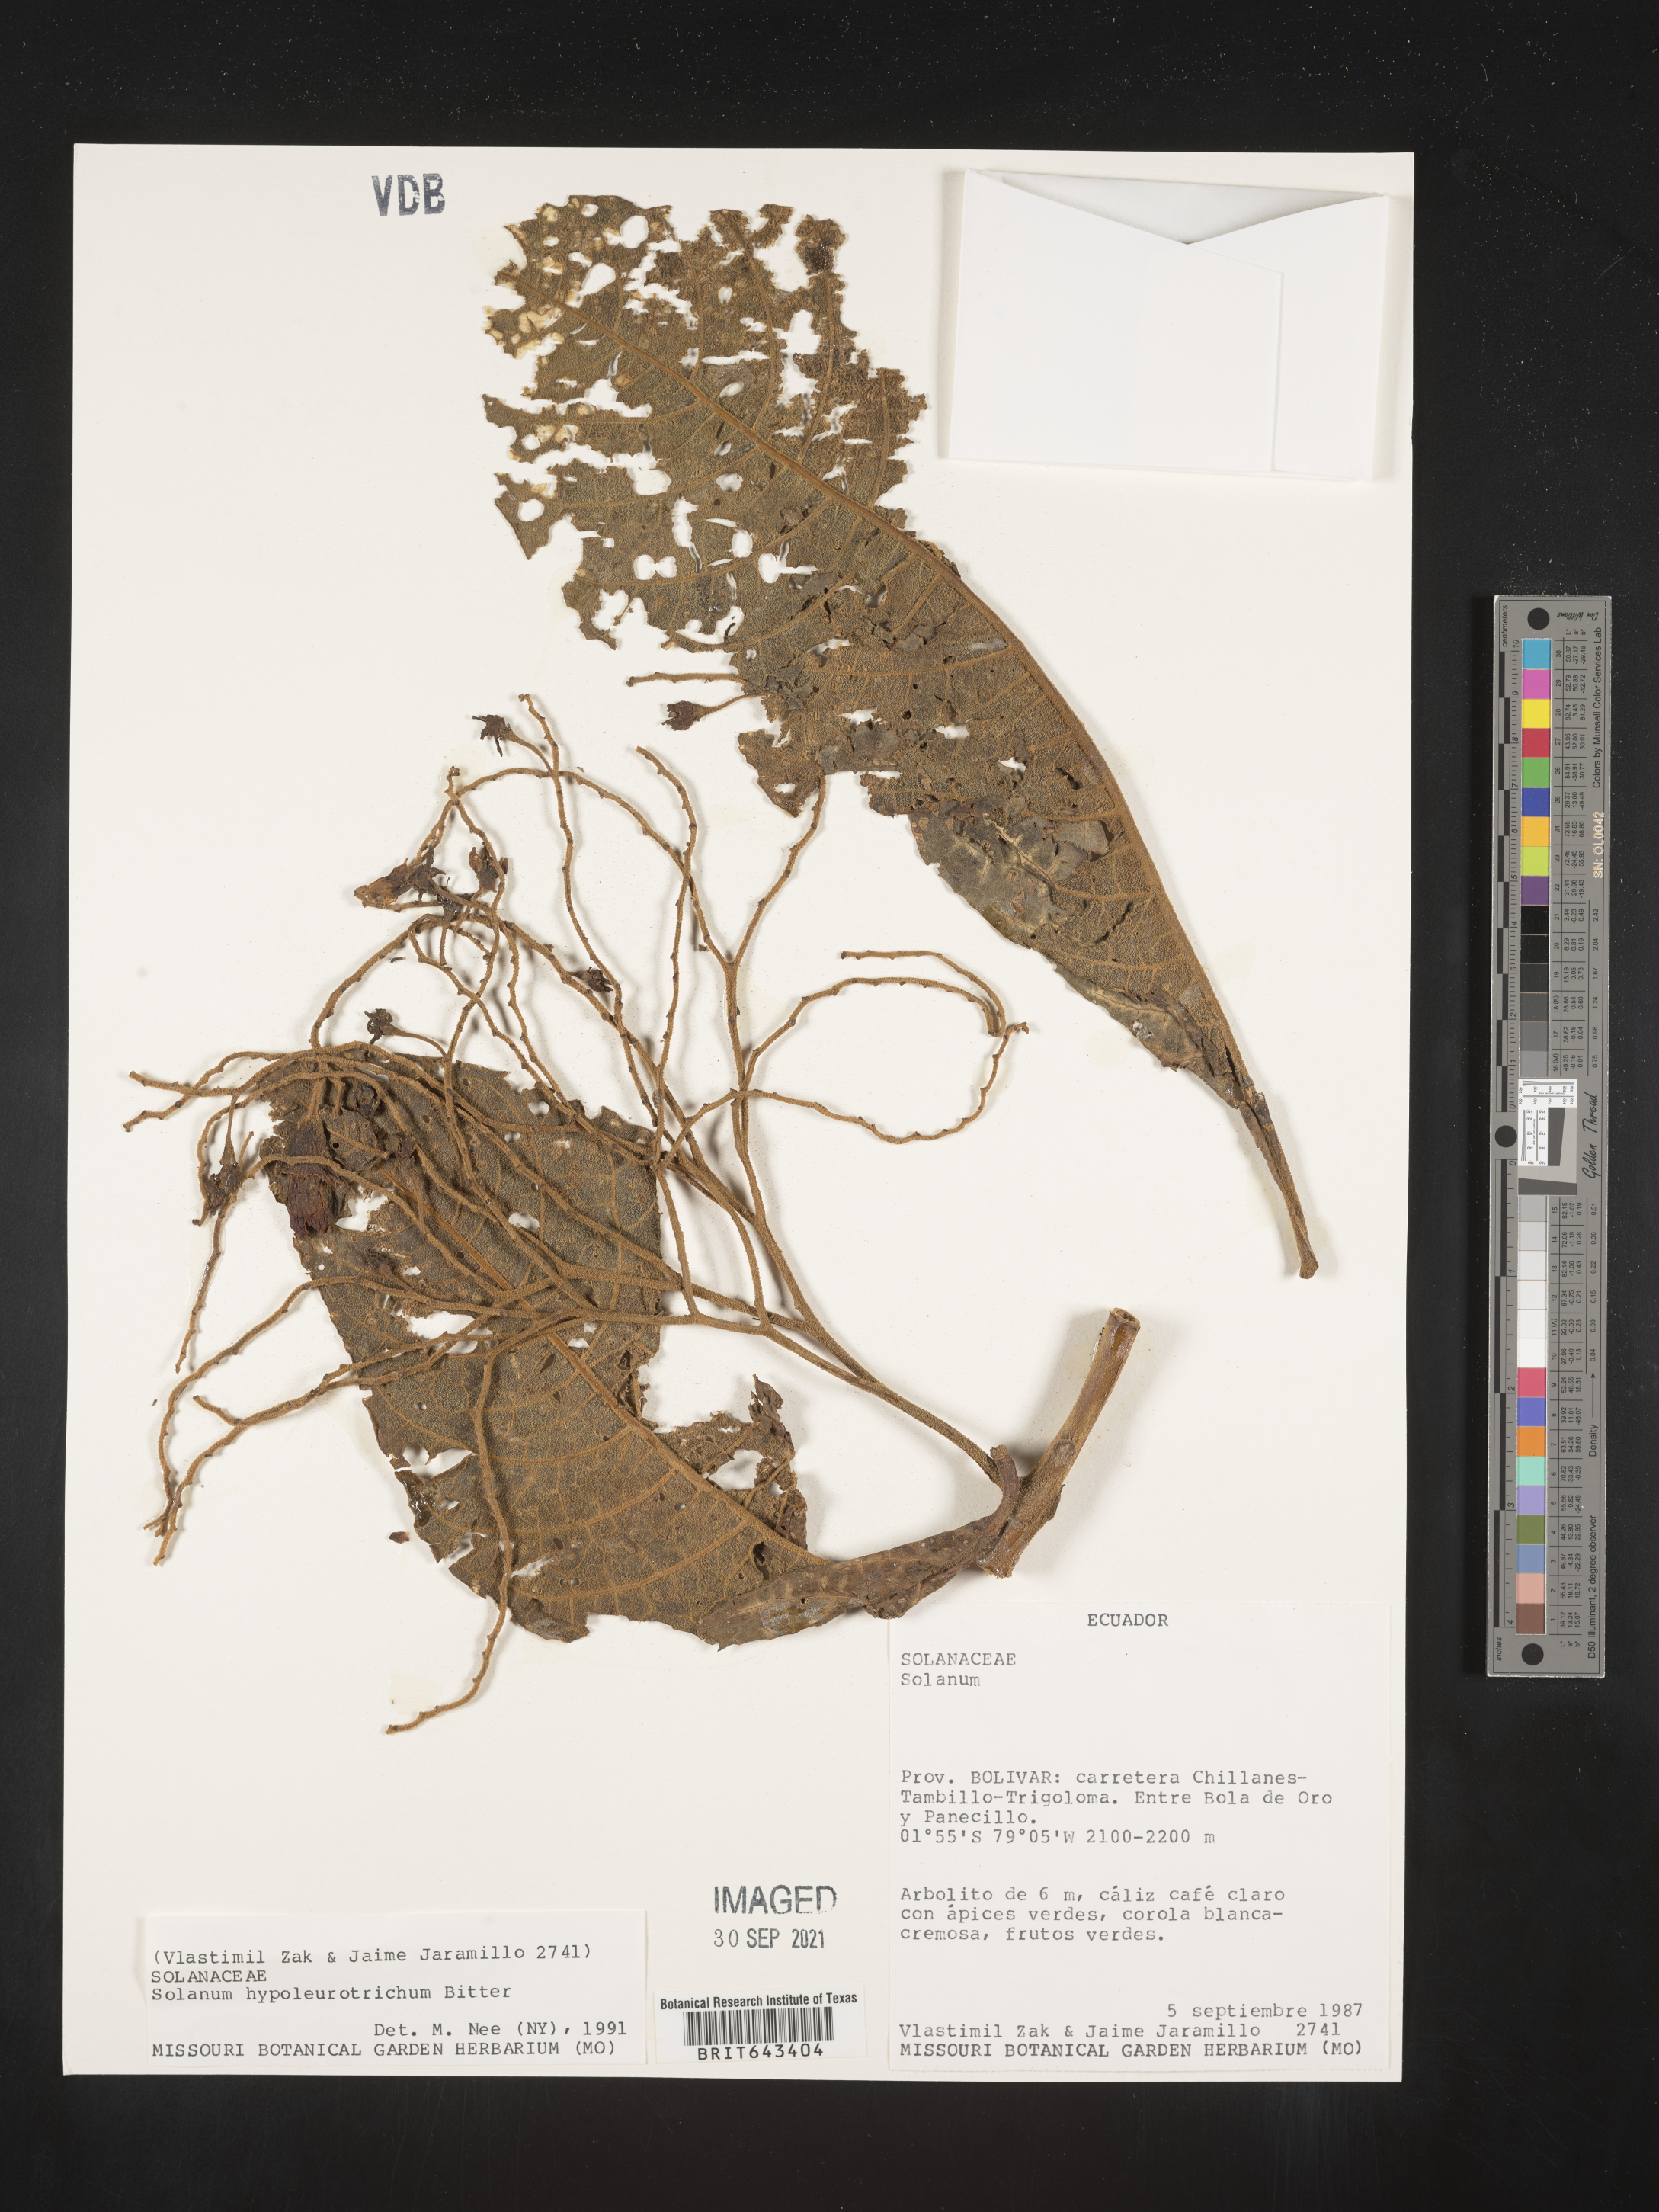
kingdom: Plantae
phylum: Tracheophyta
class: Magnoliopsida
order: Solanales
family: Solanaceae
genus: Solanum
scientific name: Solanum
